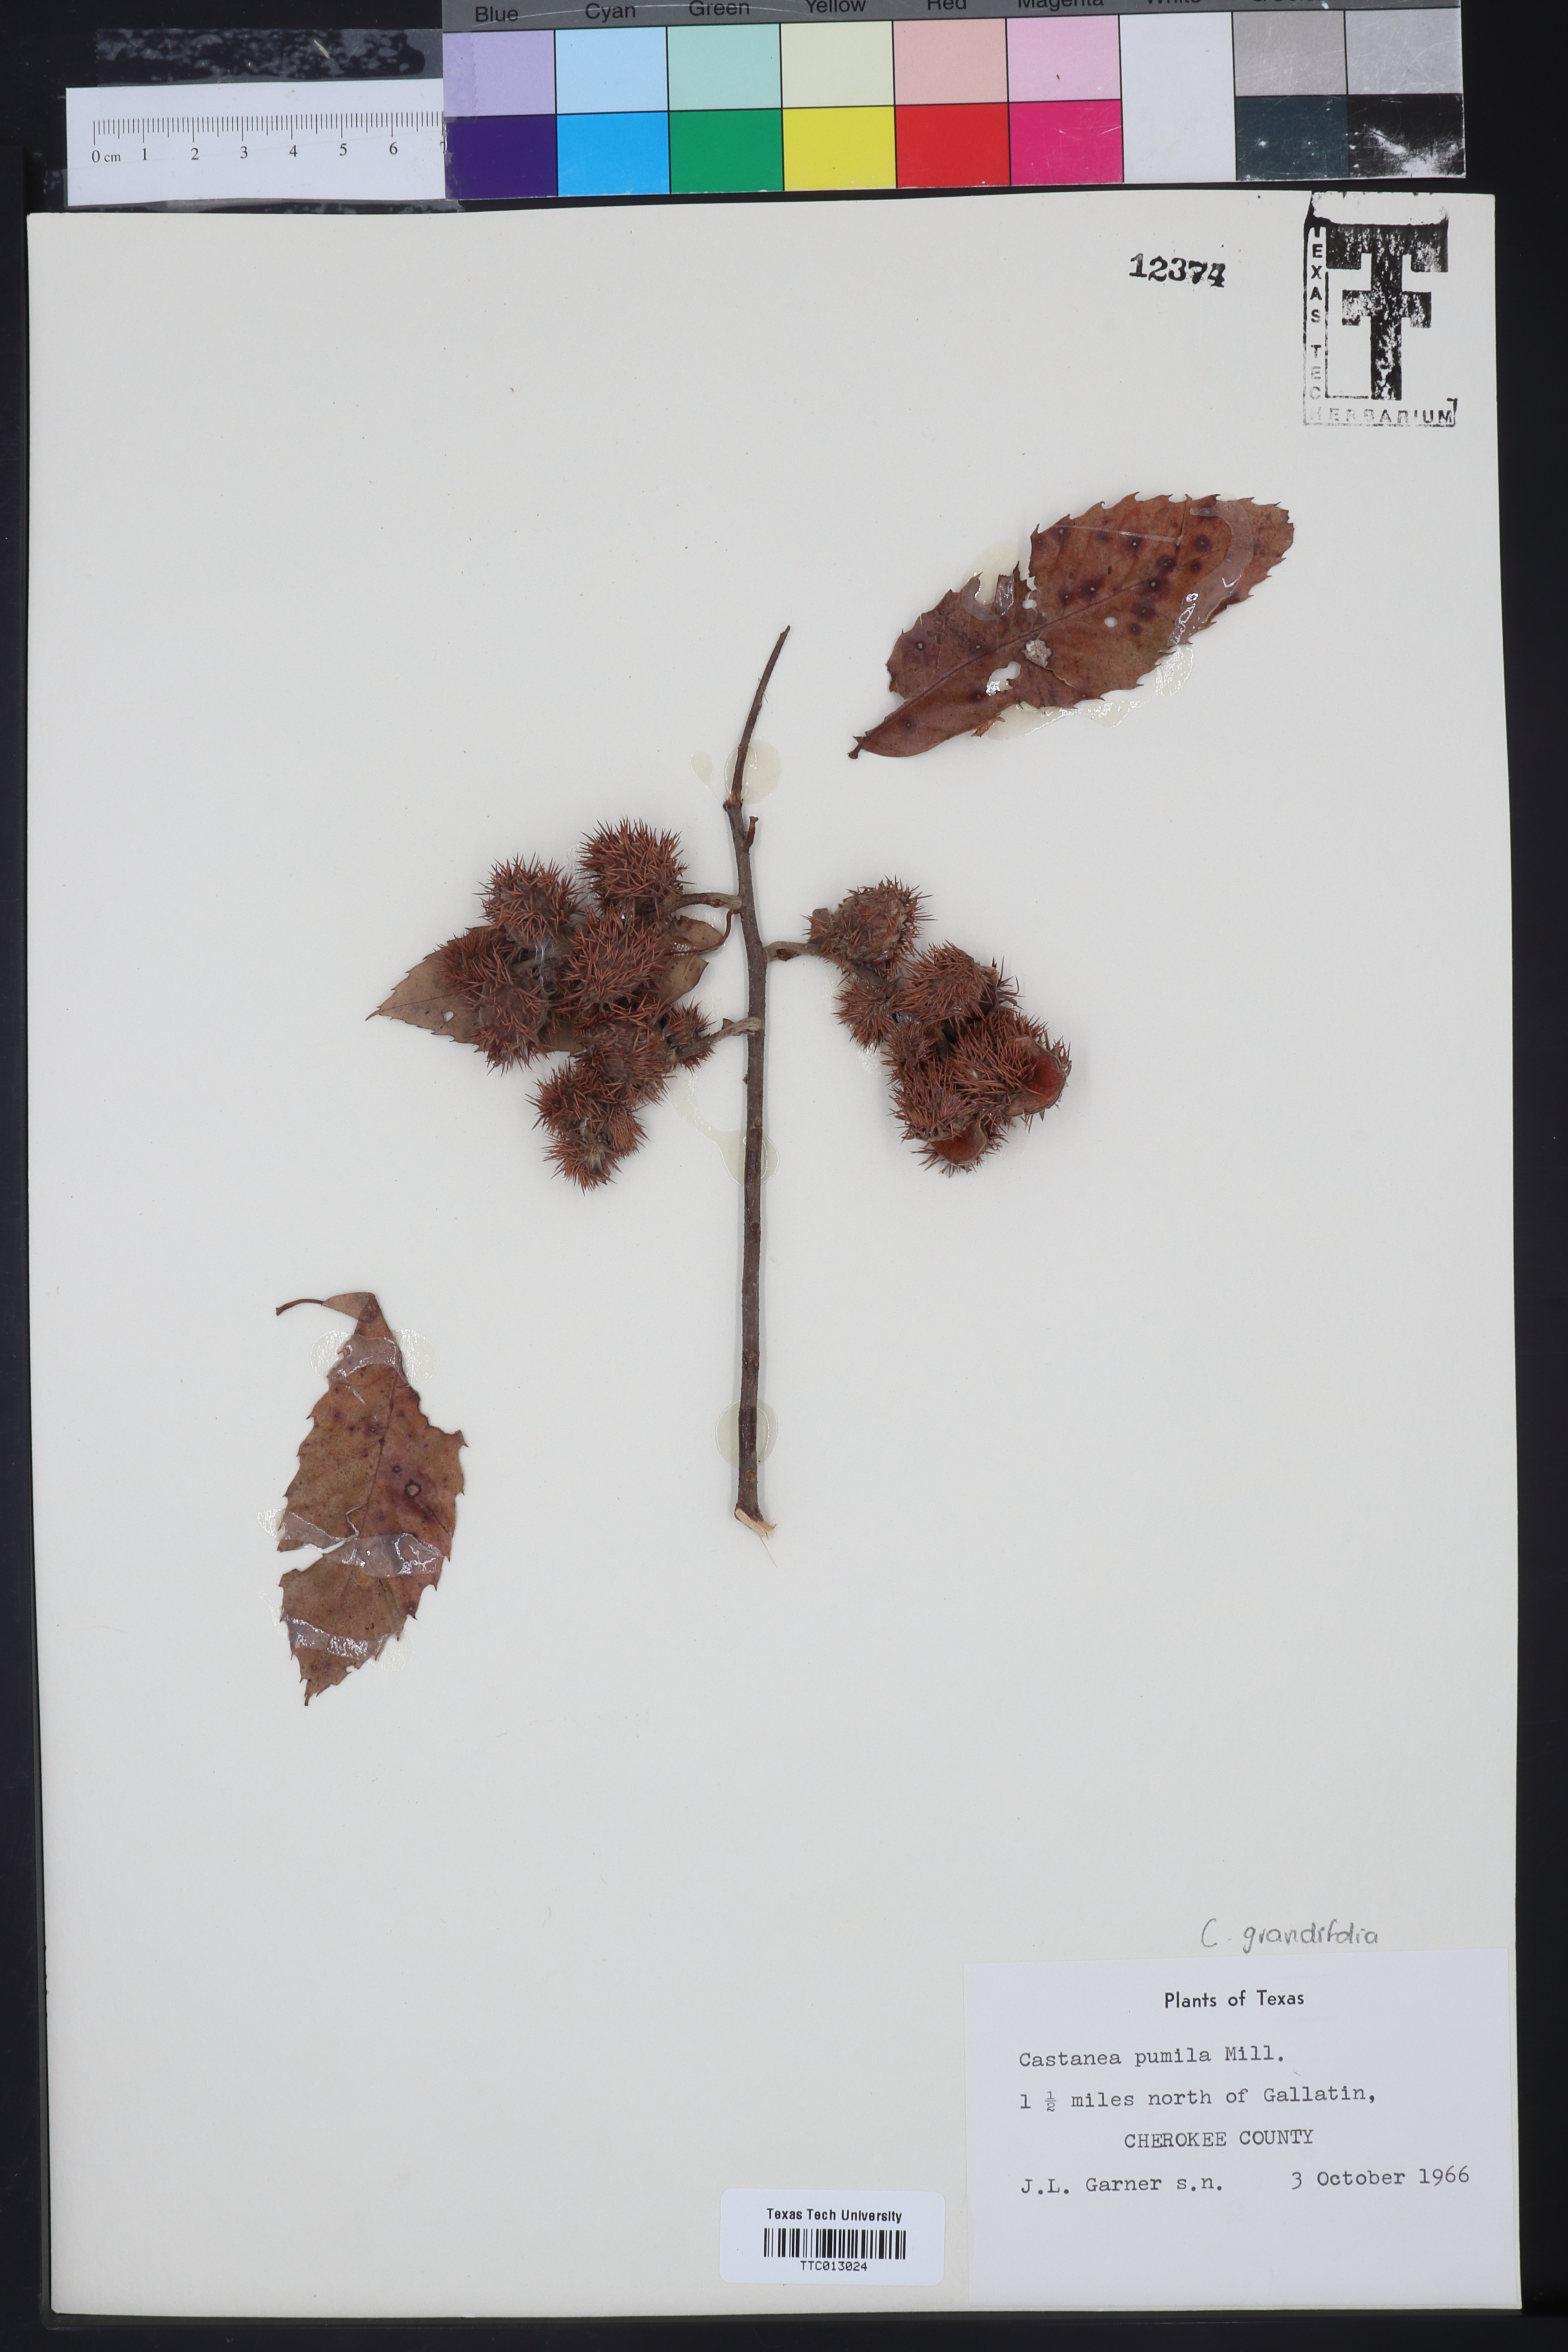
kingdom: Plantae
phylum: Tracheophyta
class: Magnoliopsida
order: Fagales
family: Fagaceae
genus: Castanea
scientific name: Castanea pumila
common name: Chinkapin
